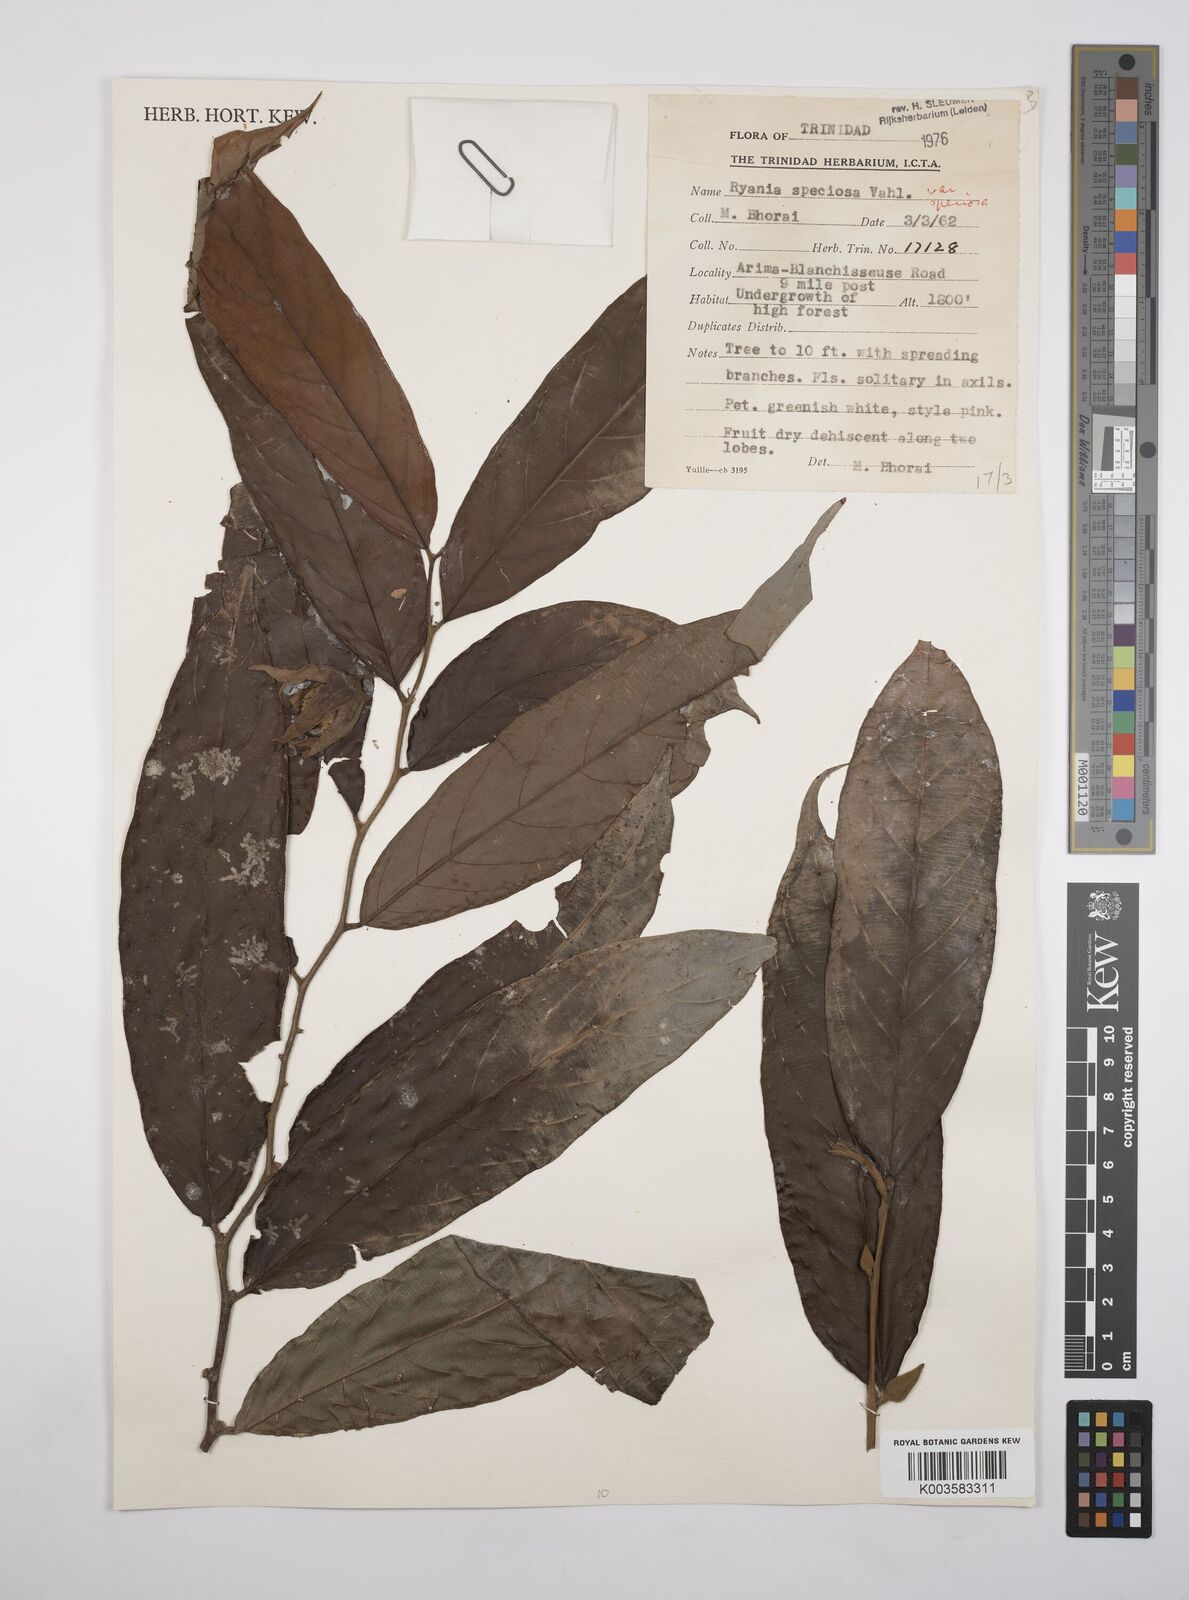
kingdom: Plantae
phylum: Tracheophyta
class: Magnoliopsida
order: Malpighiales
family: Salicaceae
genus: Ryania
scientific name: Ryania speciosa
